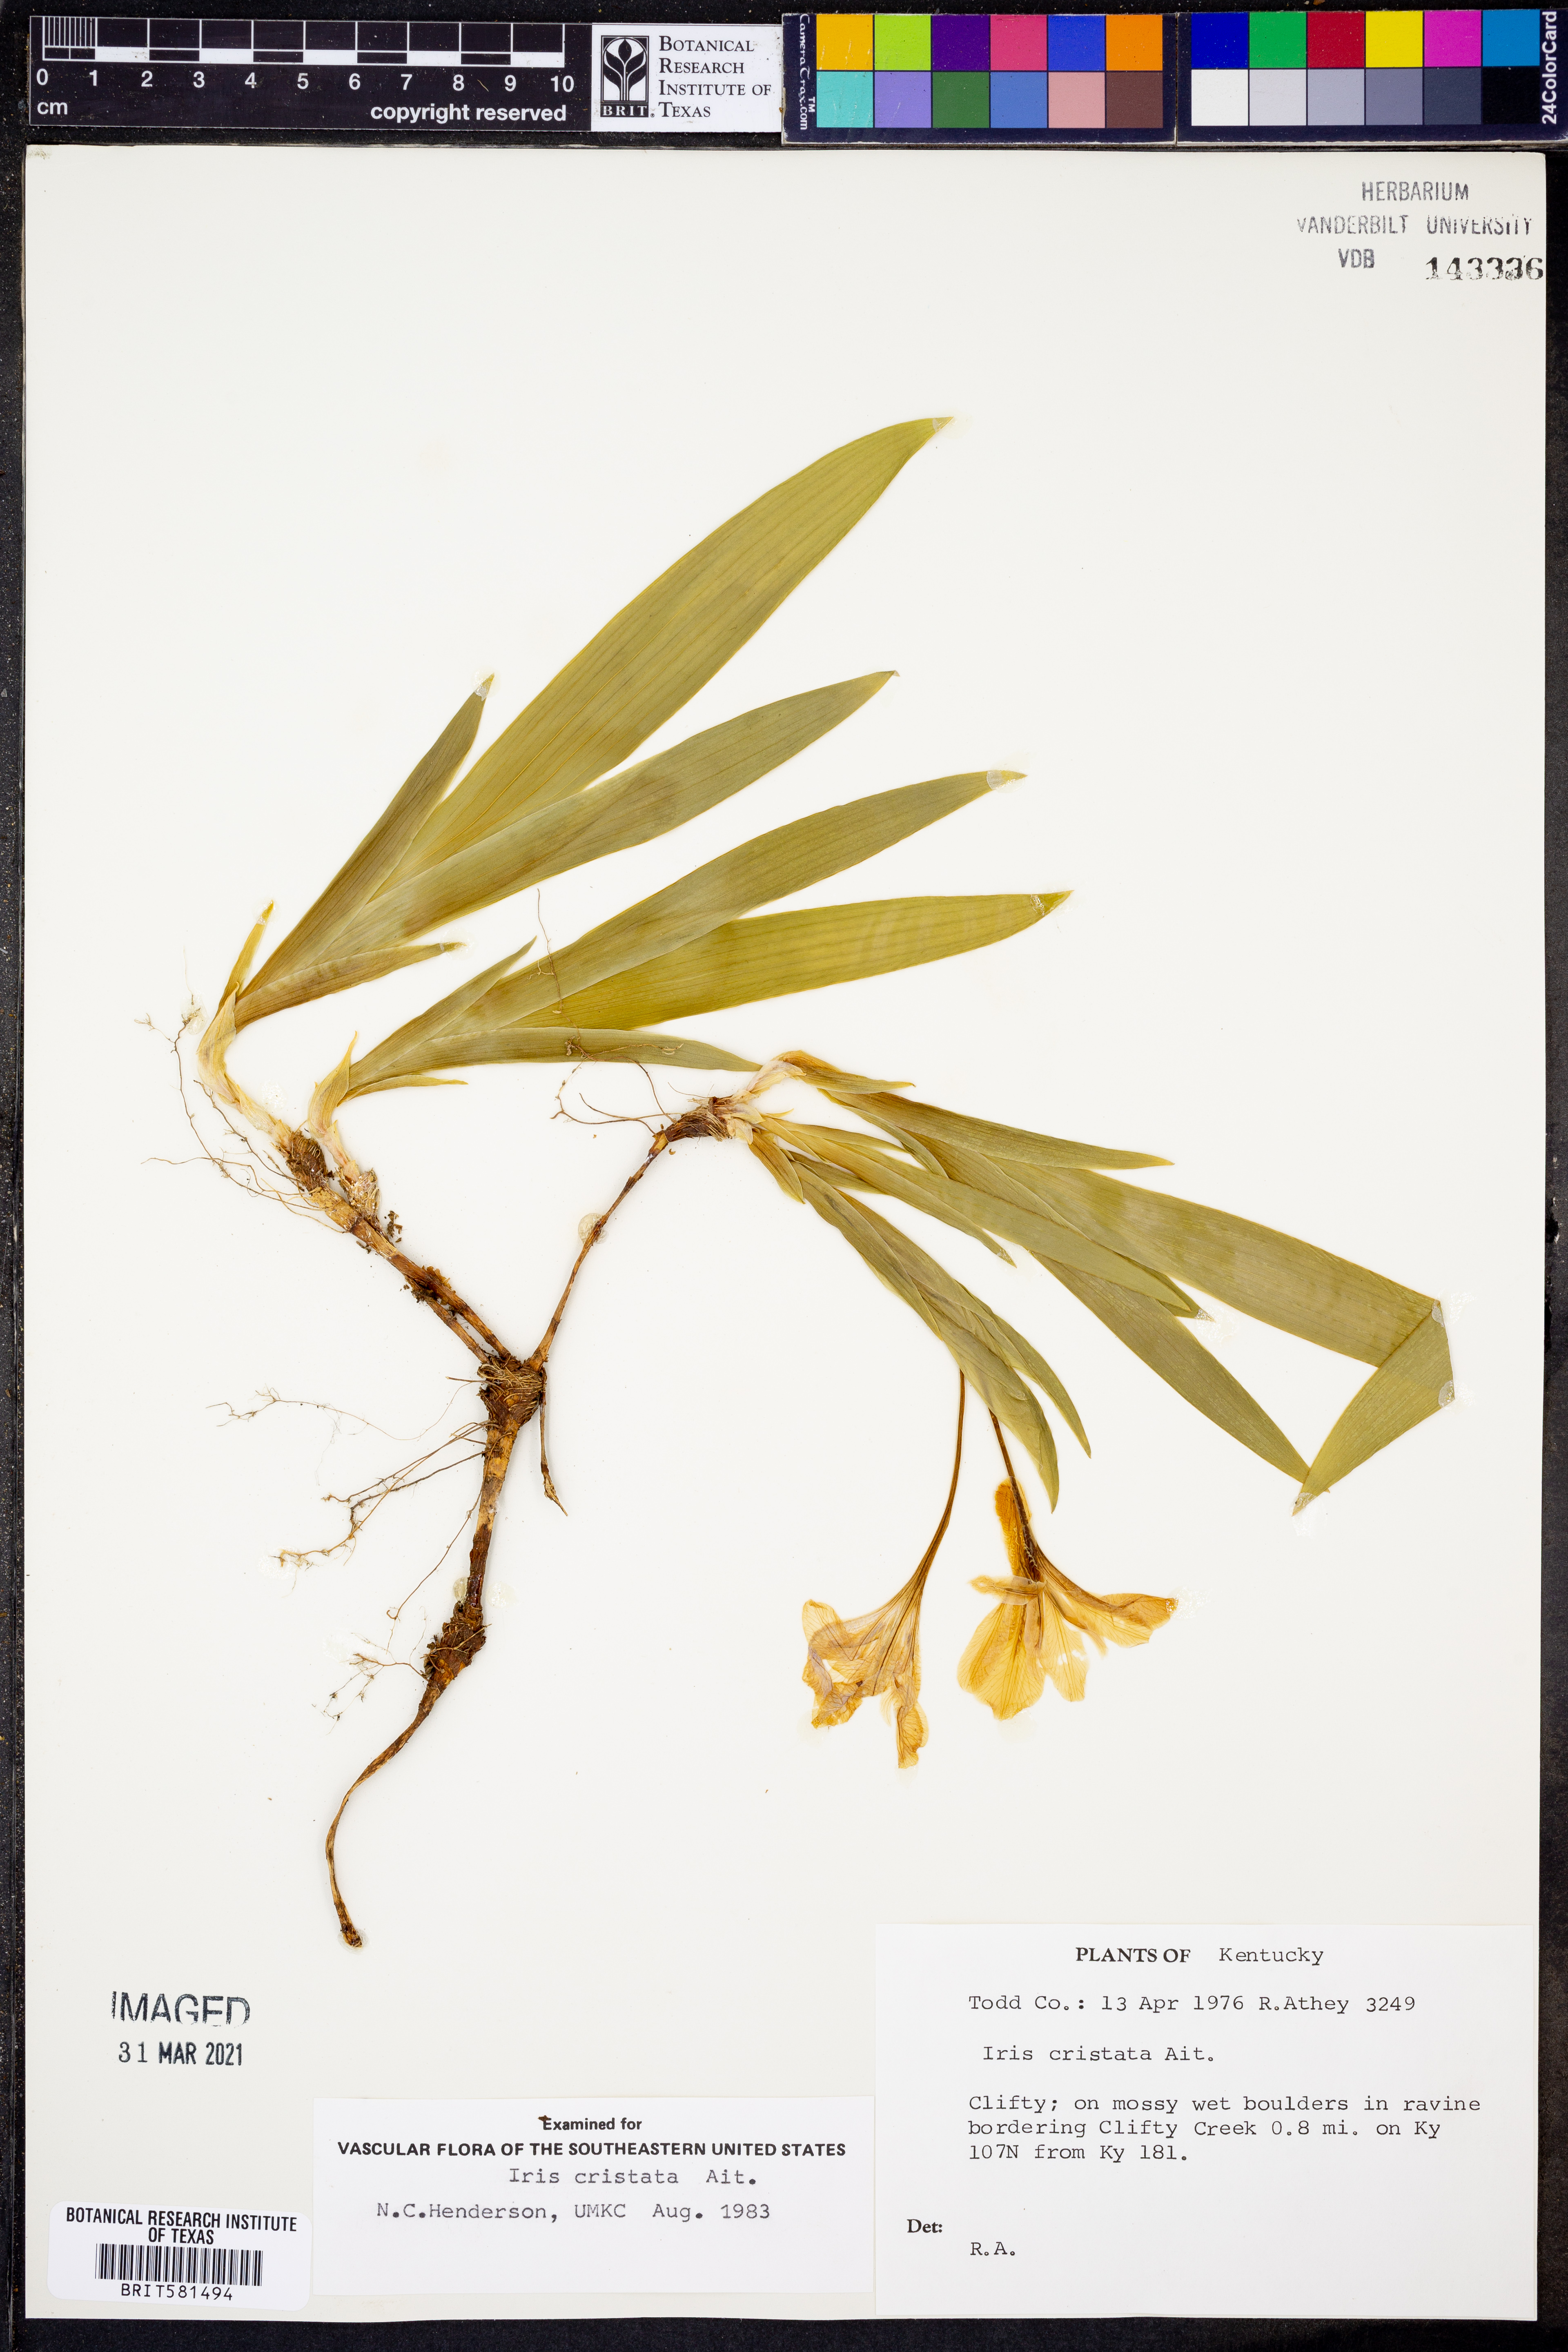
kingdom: Plantae
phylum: Tracheophyta
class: Liliopsida
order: Asparagales
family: Iridaceae
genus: Iris
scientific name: Iris cristata
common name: Crested iris
